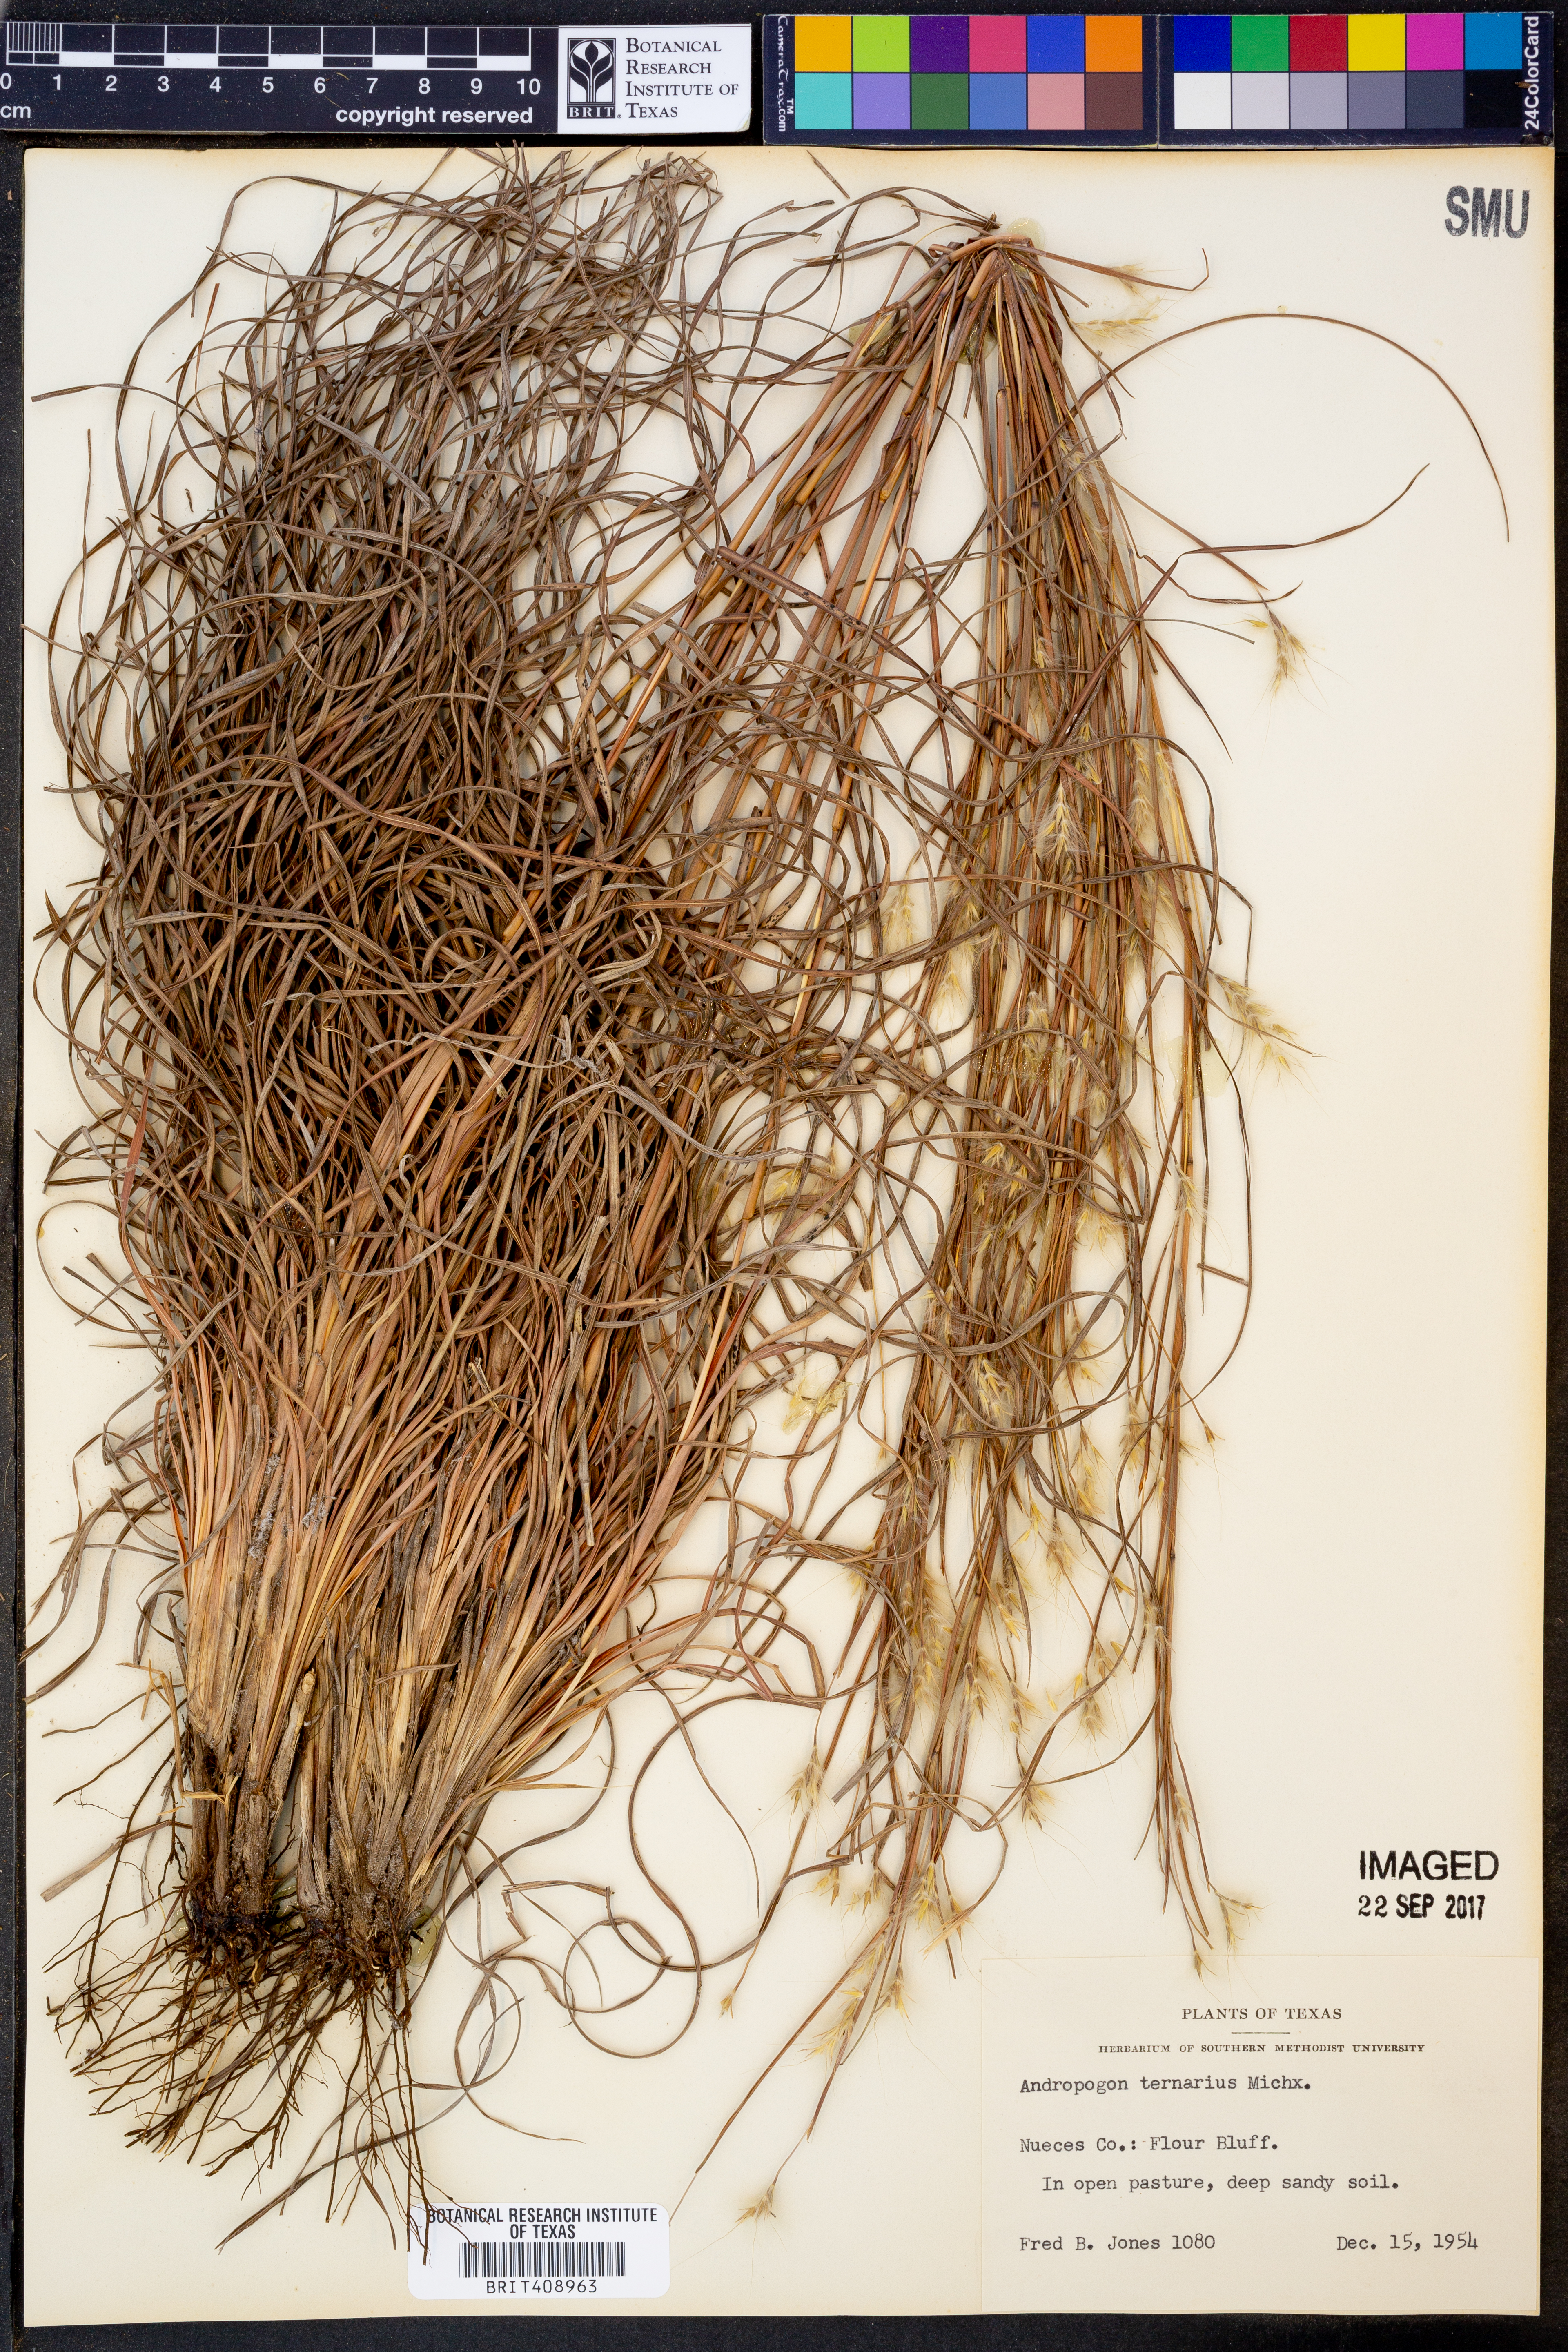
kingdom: Plantae
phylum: Tracheophyta
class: Liliopsida
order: Poales
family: Poaceae
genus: Andropogon
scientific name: Andropogon ternarius
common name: Split bluestem
